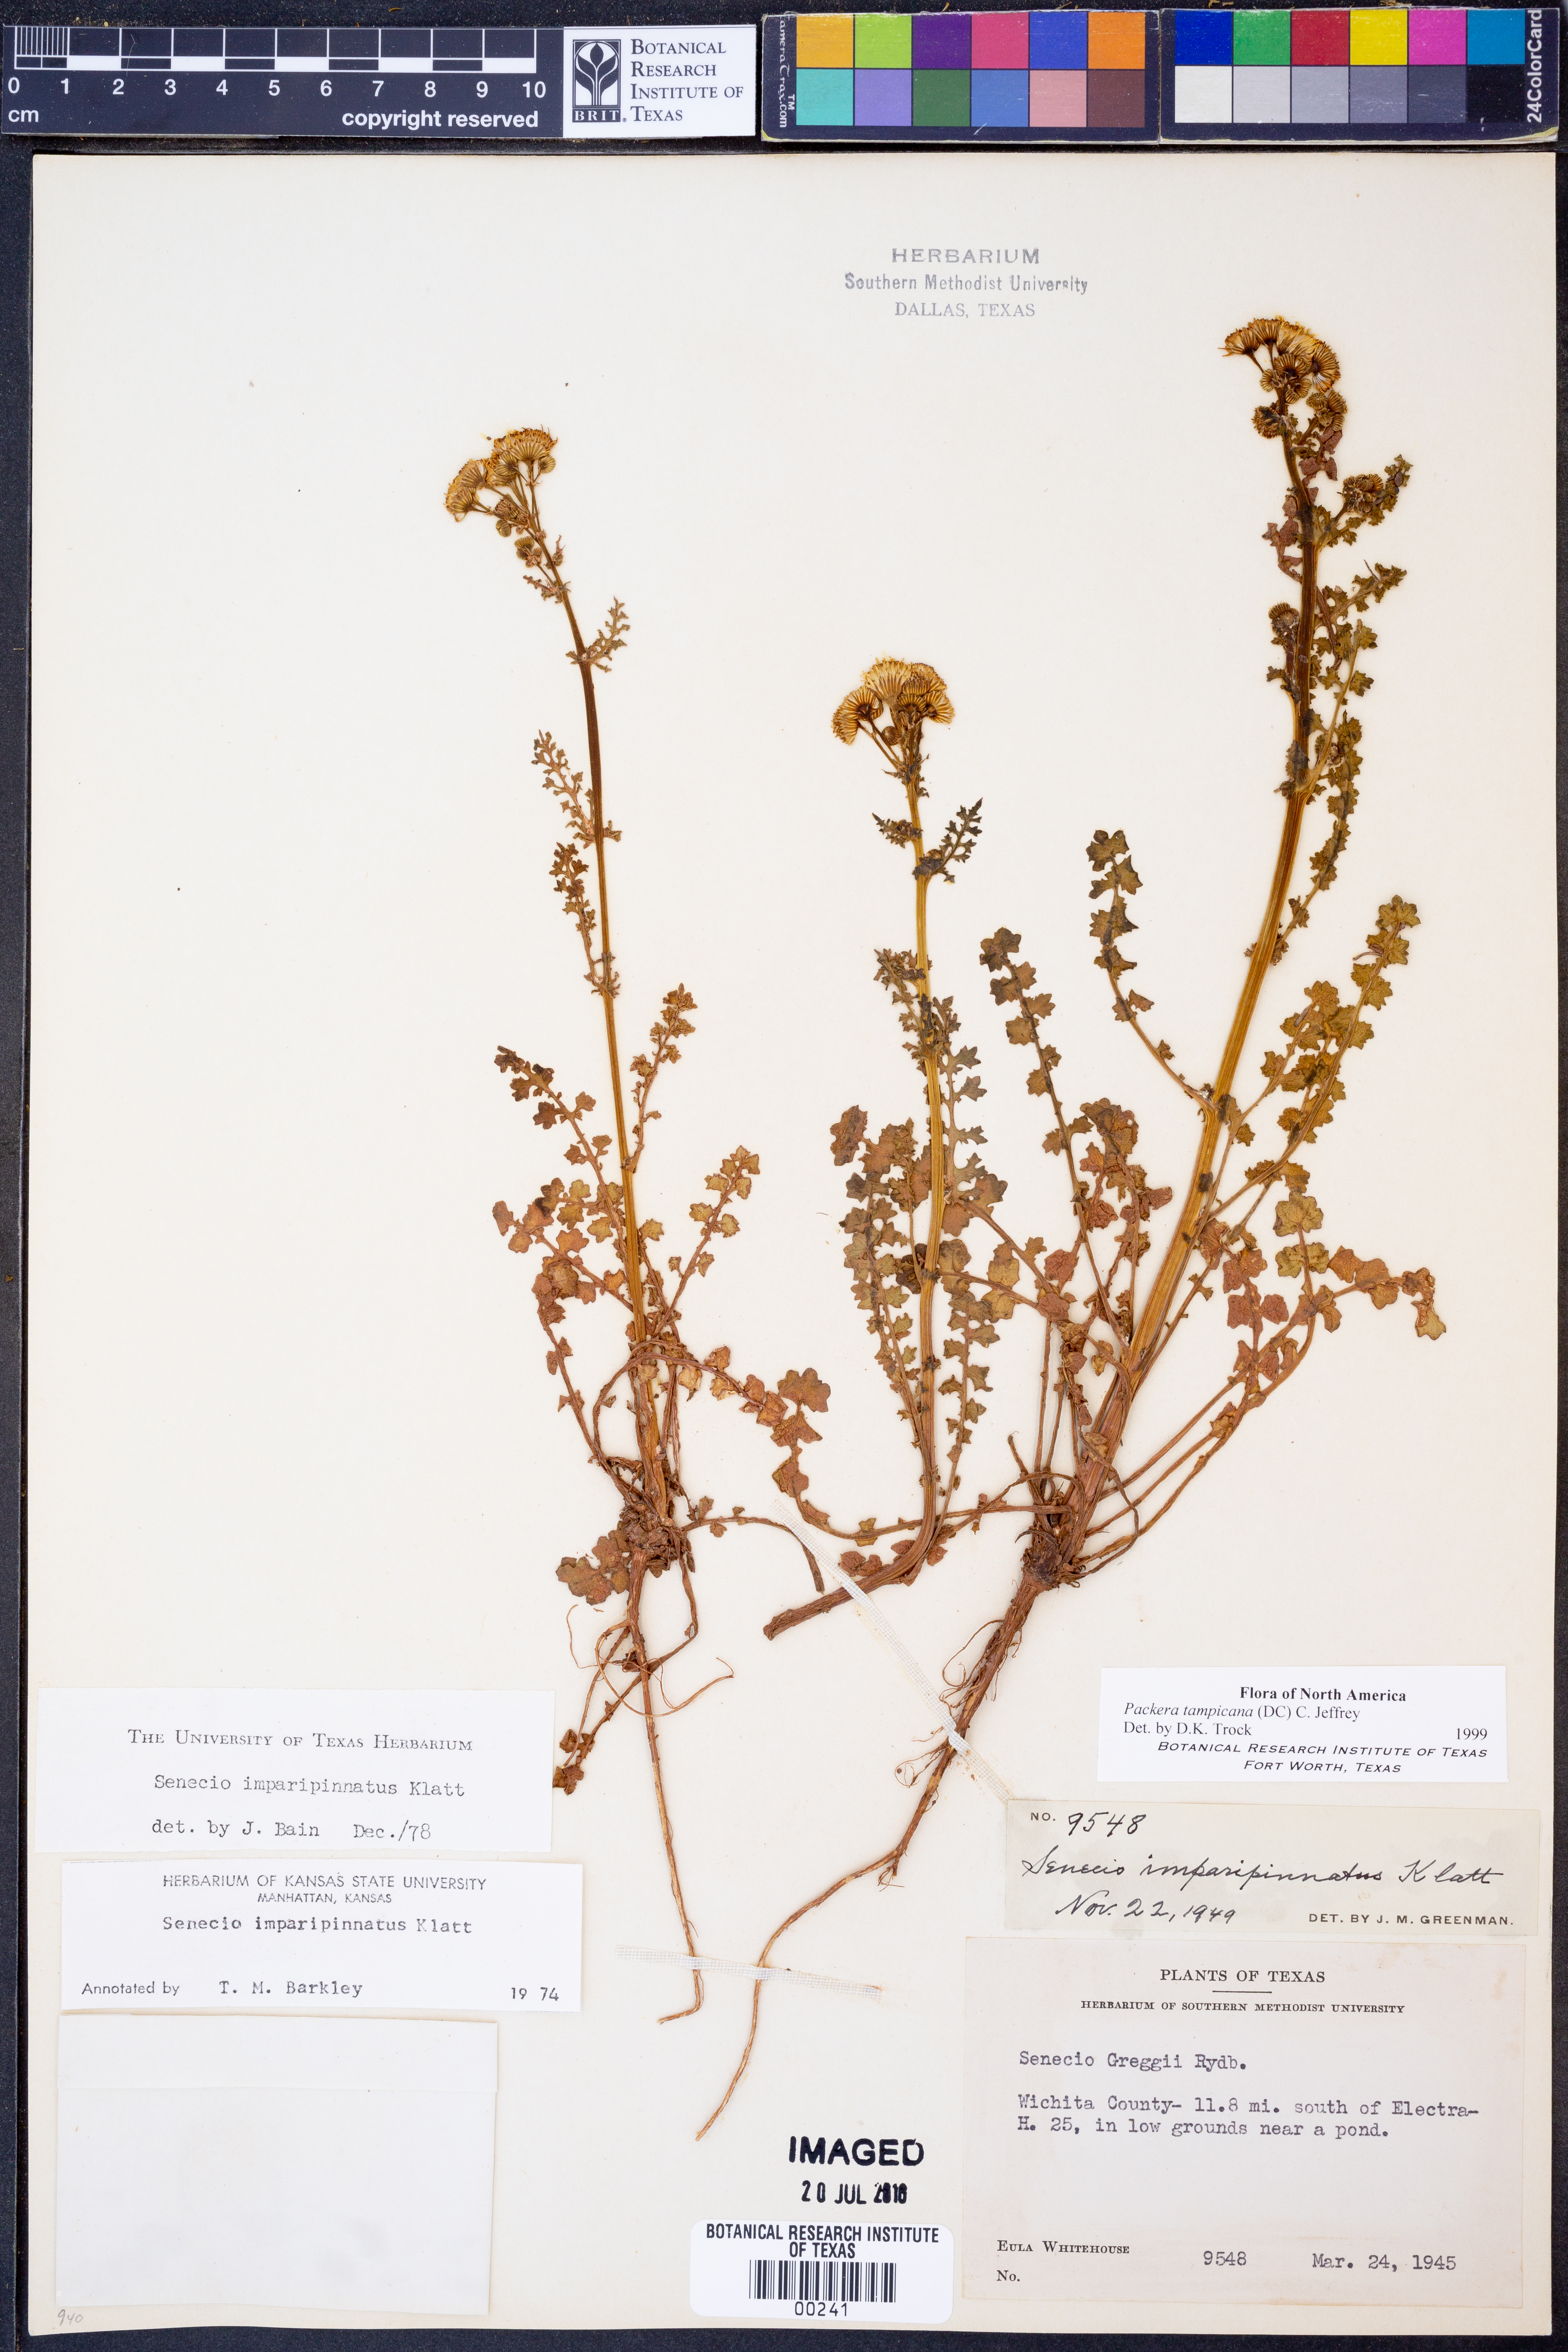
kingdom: Plantae
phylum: Tracheophyta
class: Magnoliopsida
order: Asterales
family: Asteraceae
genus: Packera
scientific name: Packera tampicana
